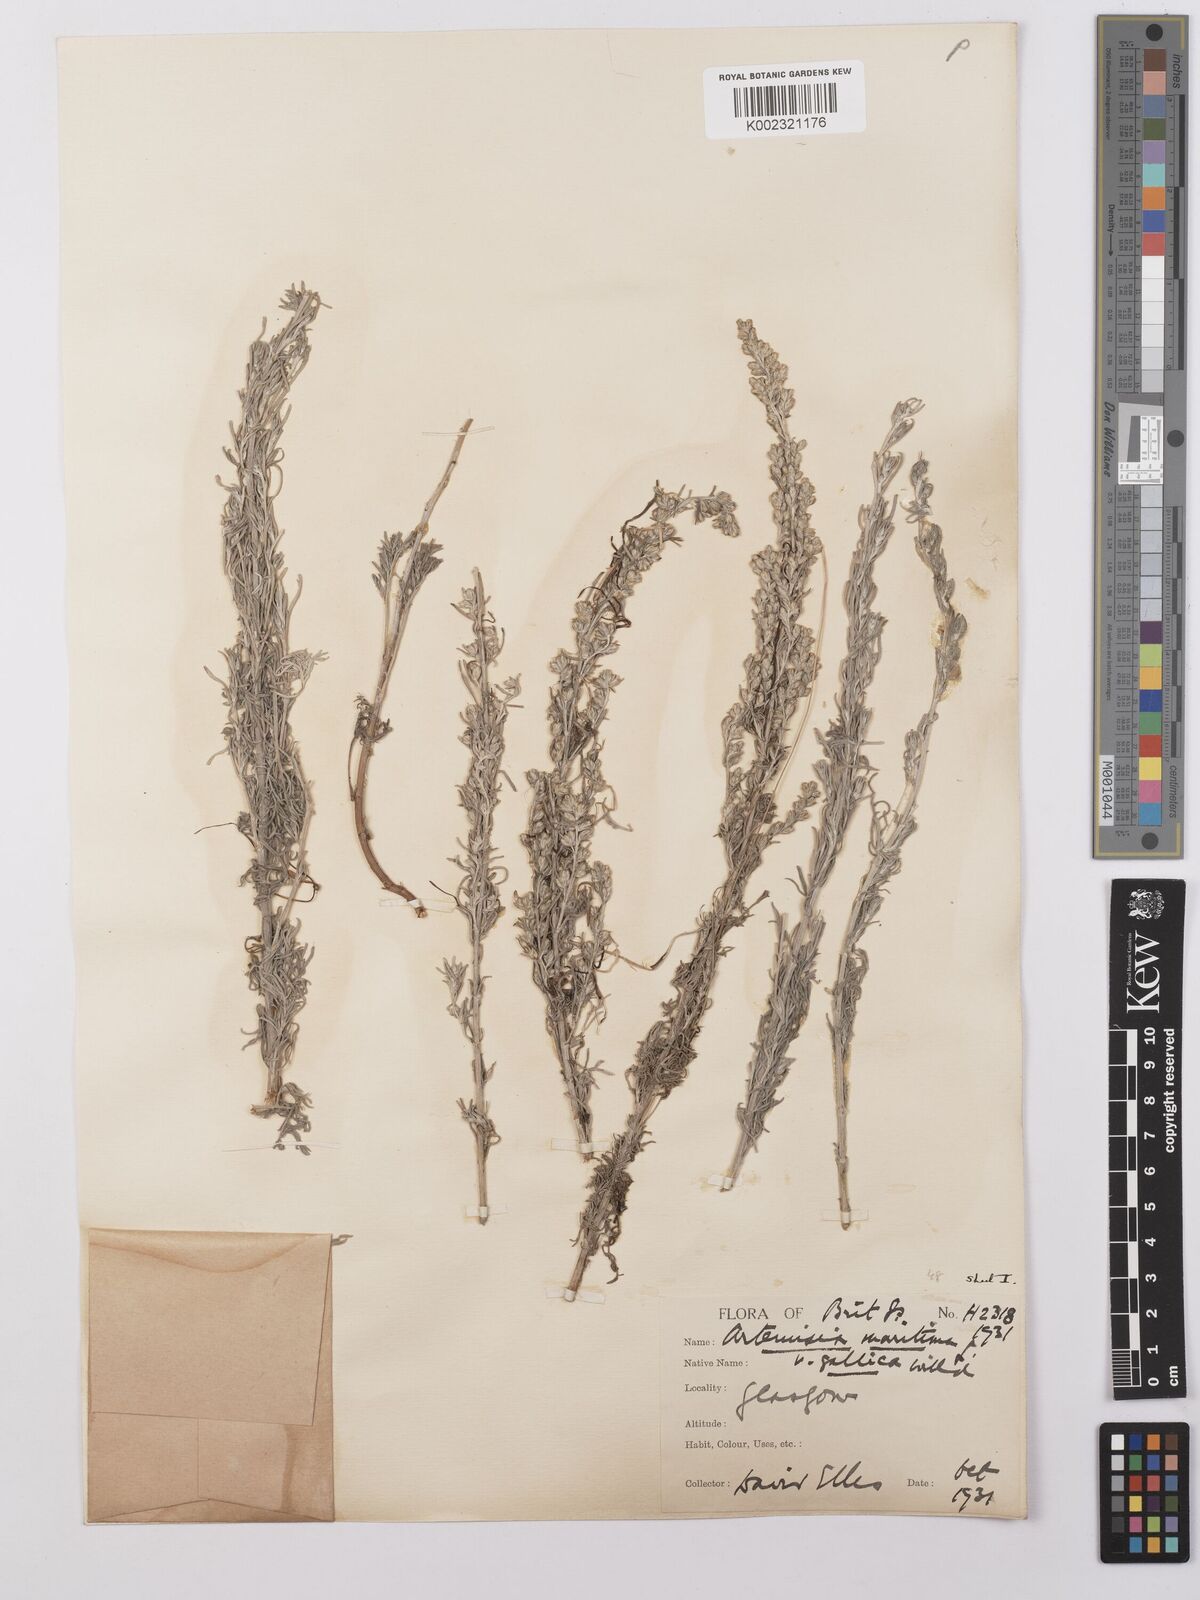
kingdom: Plantae
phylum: Tracheophyta
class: Magnoliopsida
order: Asterales
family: Asteraceae
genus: Artemisia
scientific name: Artemisia maritima
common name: Wormseed
